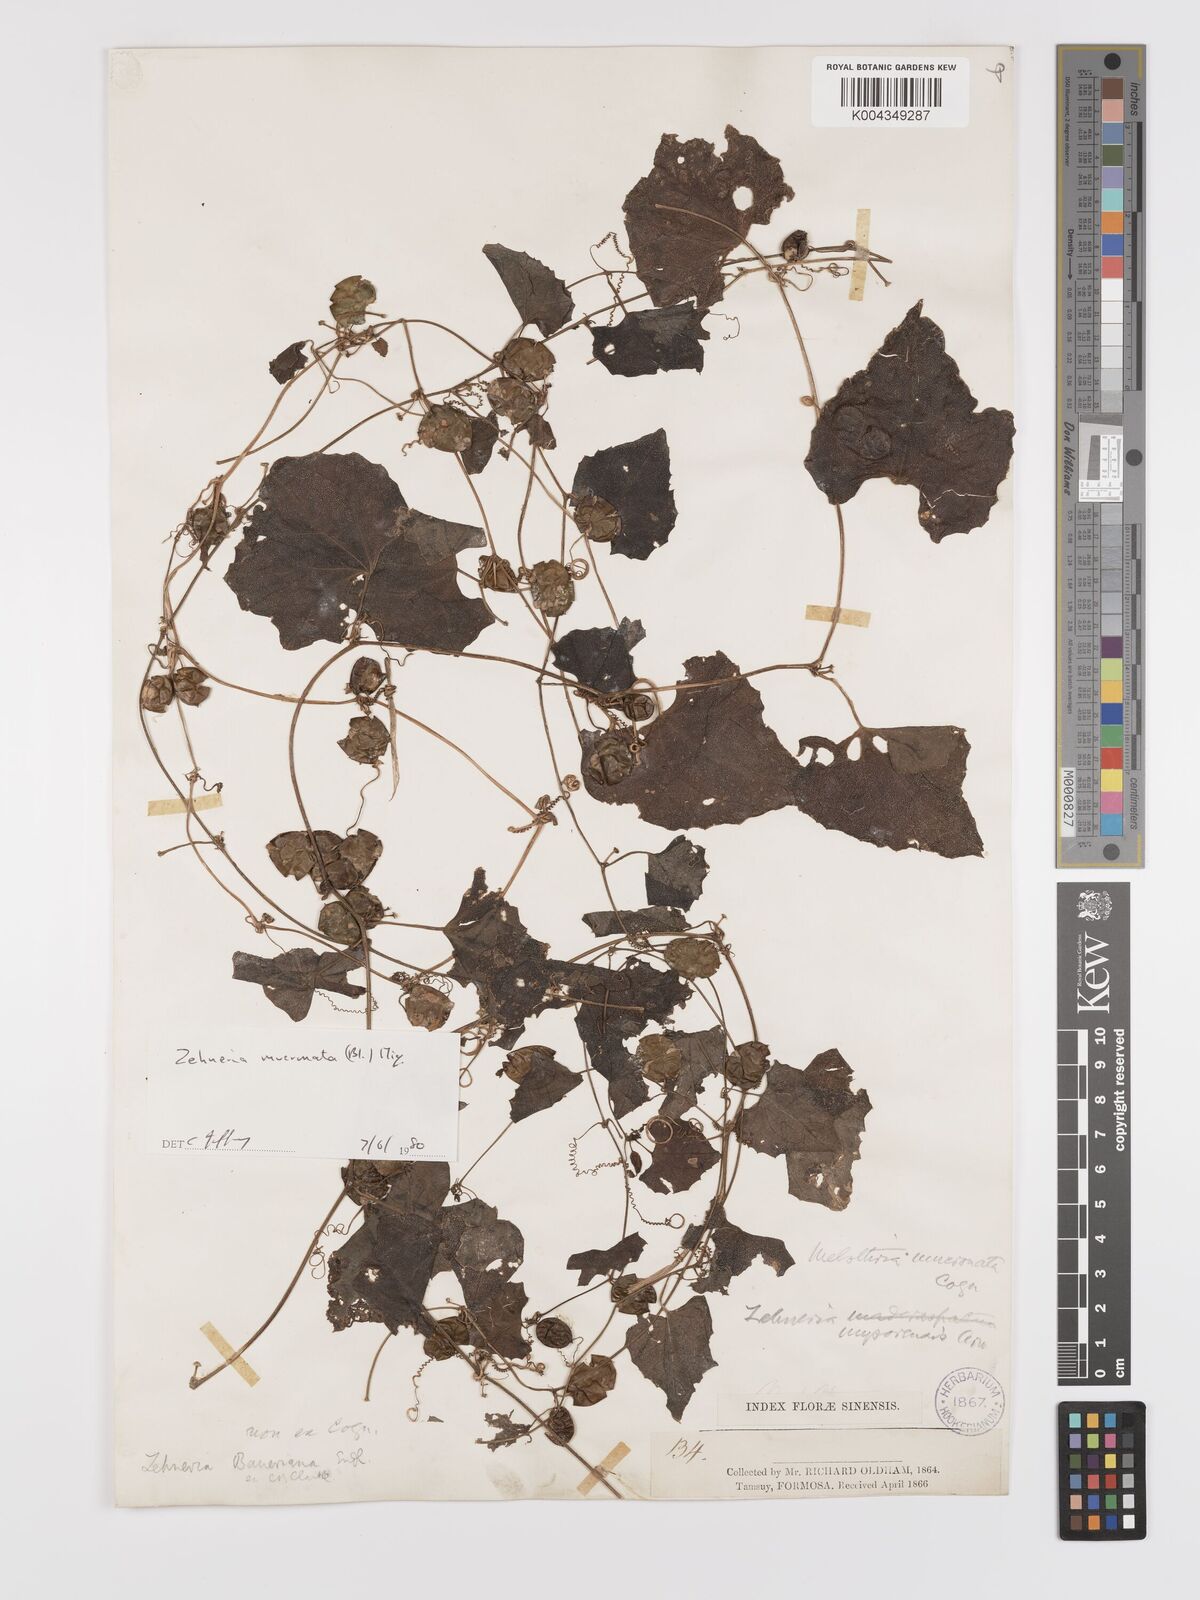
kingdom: Plantae
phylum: Tracheophyta
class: Magnoliopsida
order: Cucurbitales
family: Cucurbitaceae
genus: Zehneria
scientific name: Zehneria mucronata
